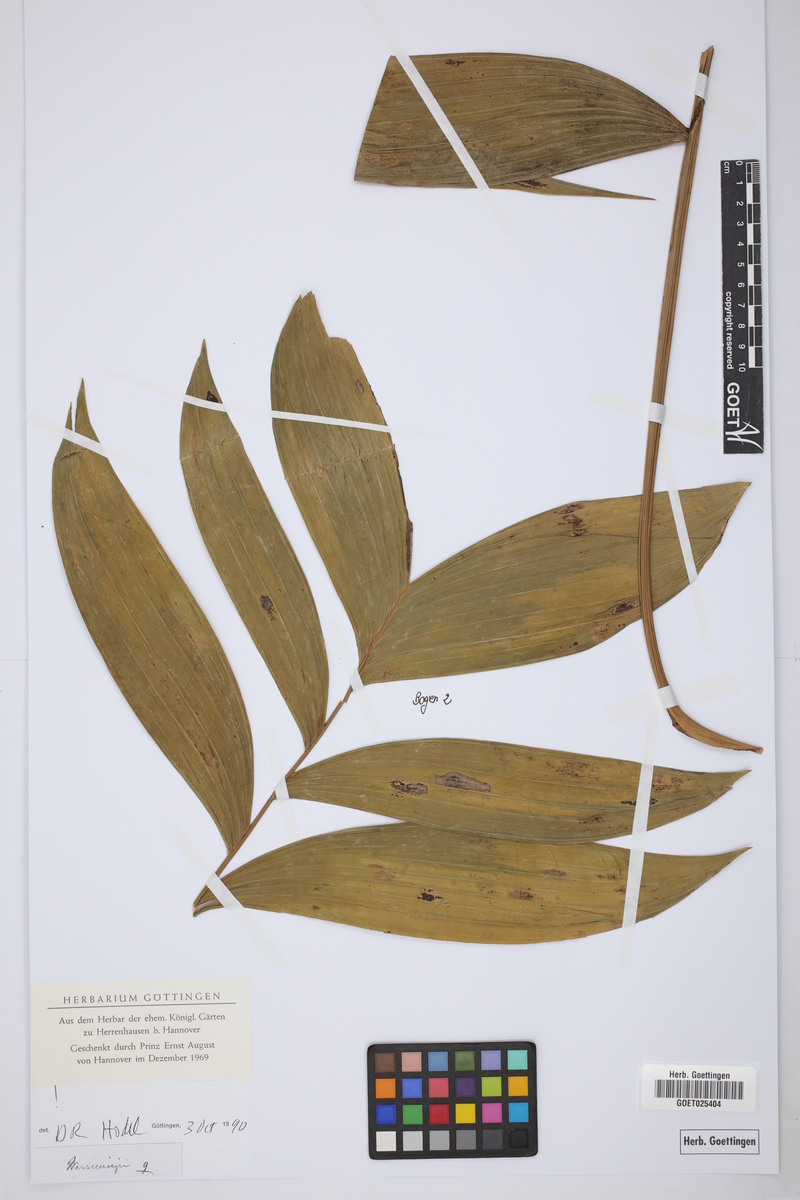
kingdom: Plantae
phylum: Tracheophyta
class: Liliopsida
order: Arecales
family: Arecaceae
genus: Chamaedorea
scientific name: Chamaedorea
